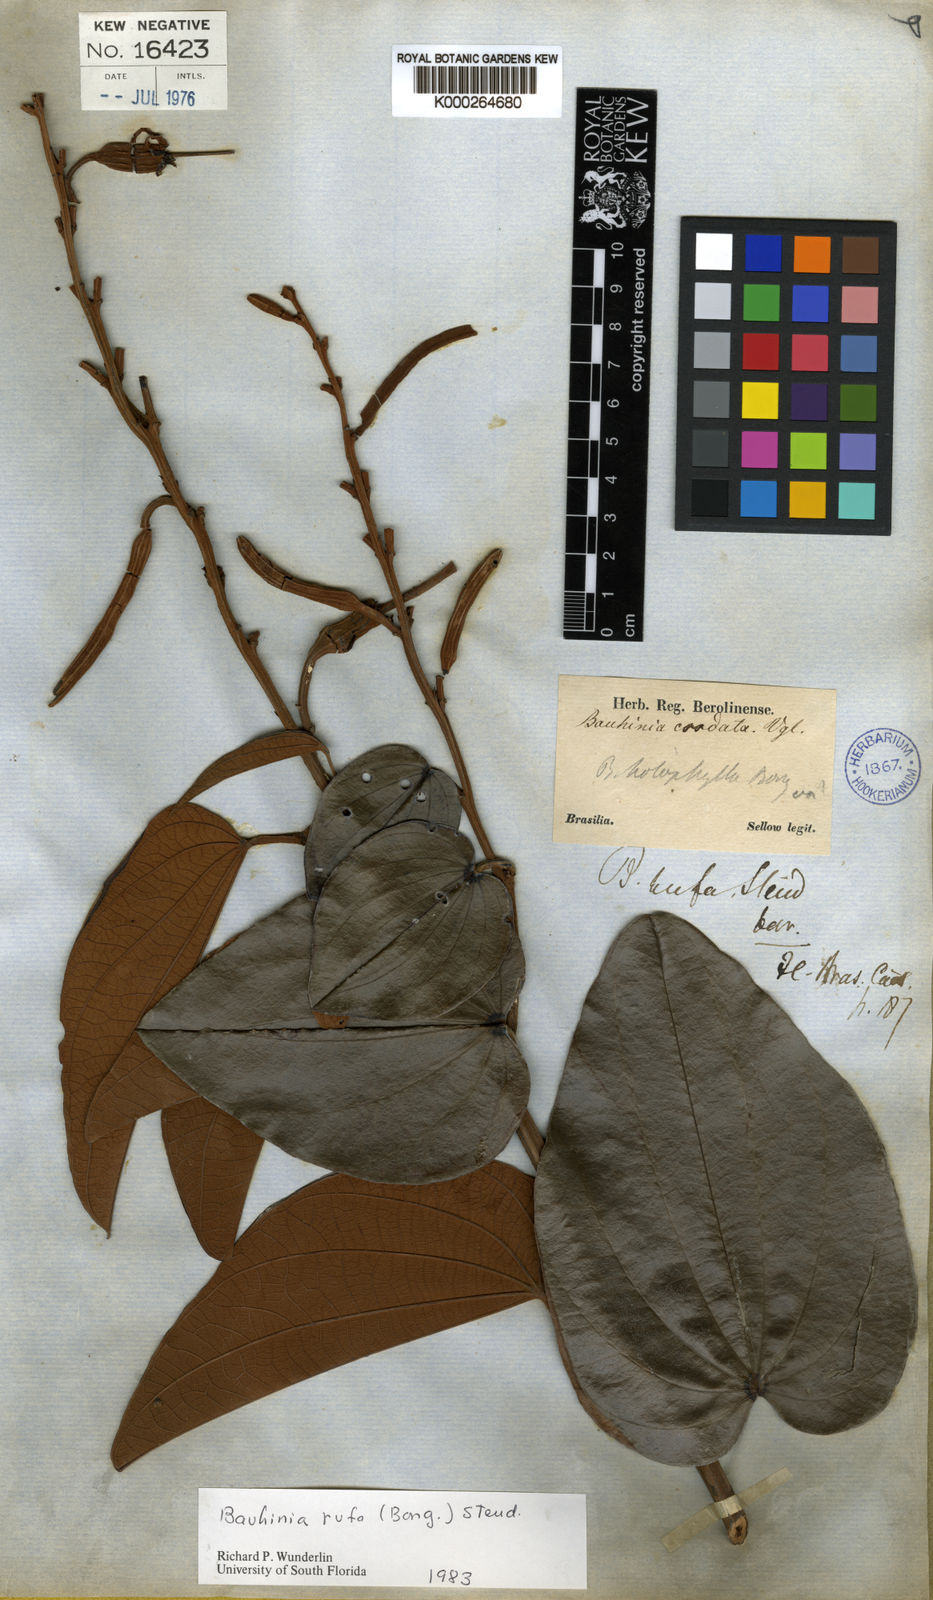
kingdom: Plantae
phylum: Tracheophyta
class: Magnoliopsida
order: Fabales
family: Fabaceae
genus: Bauhinia
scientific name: Bauhinia rufa
